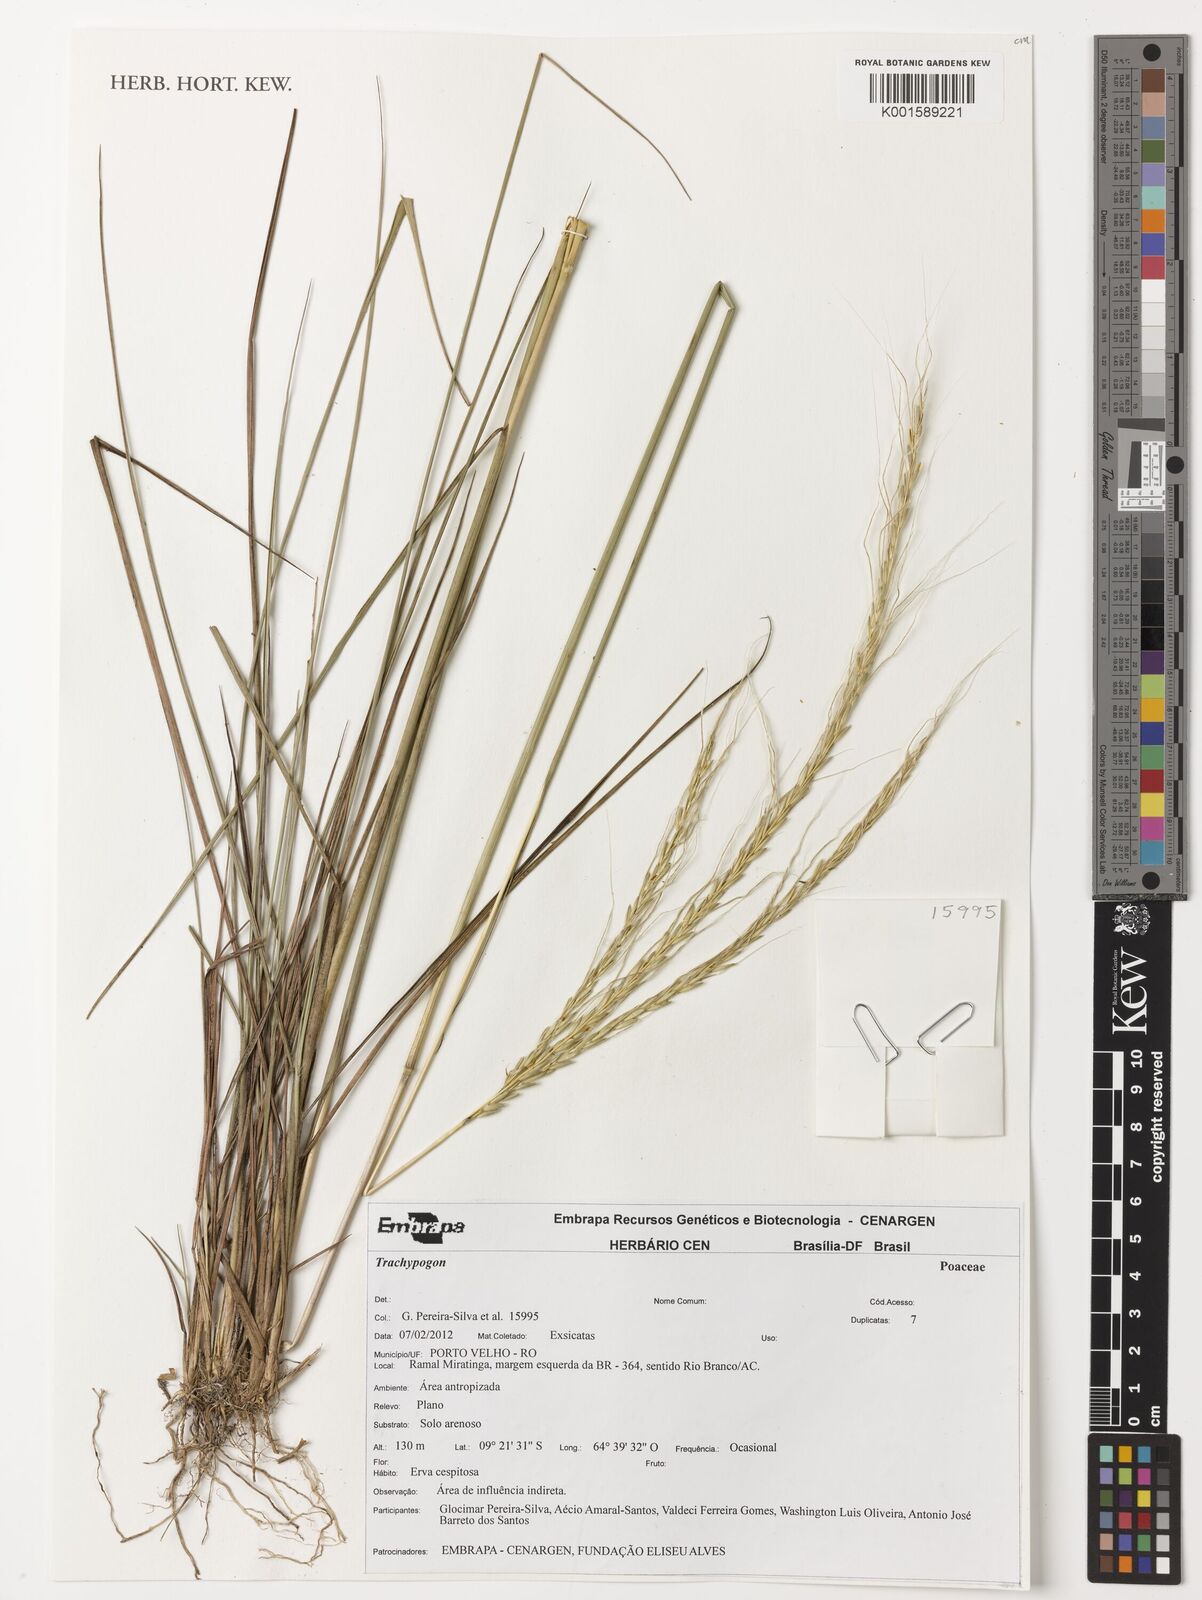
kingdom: Plantae
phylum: Tracheophyta
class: Liliopsida
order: Poales
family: Poaceae
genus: Trachypogon
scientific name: Trachypogon
